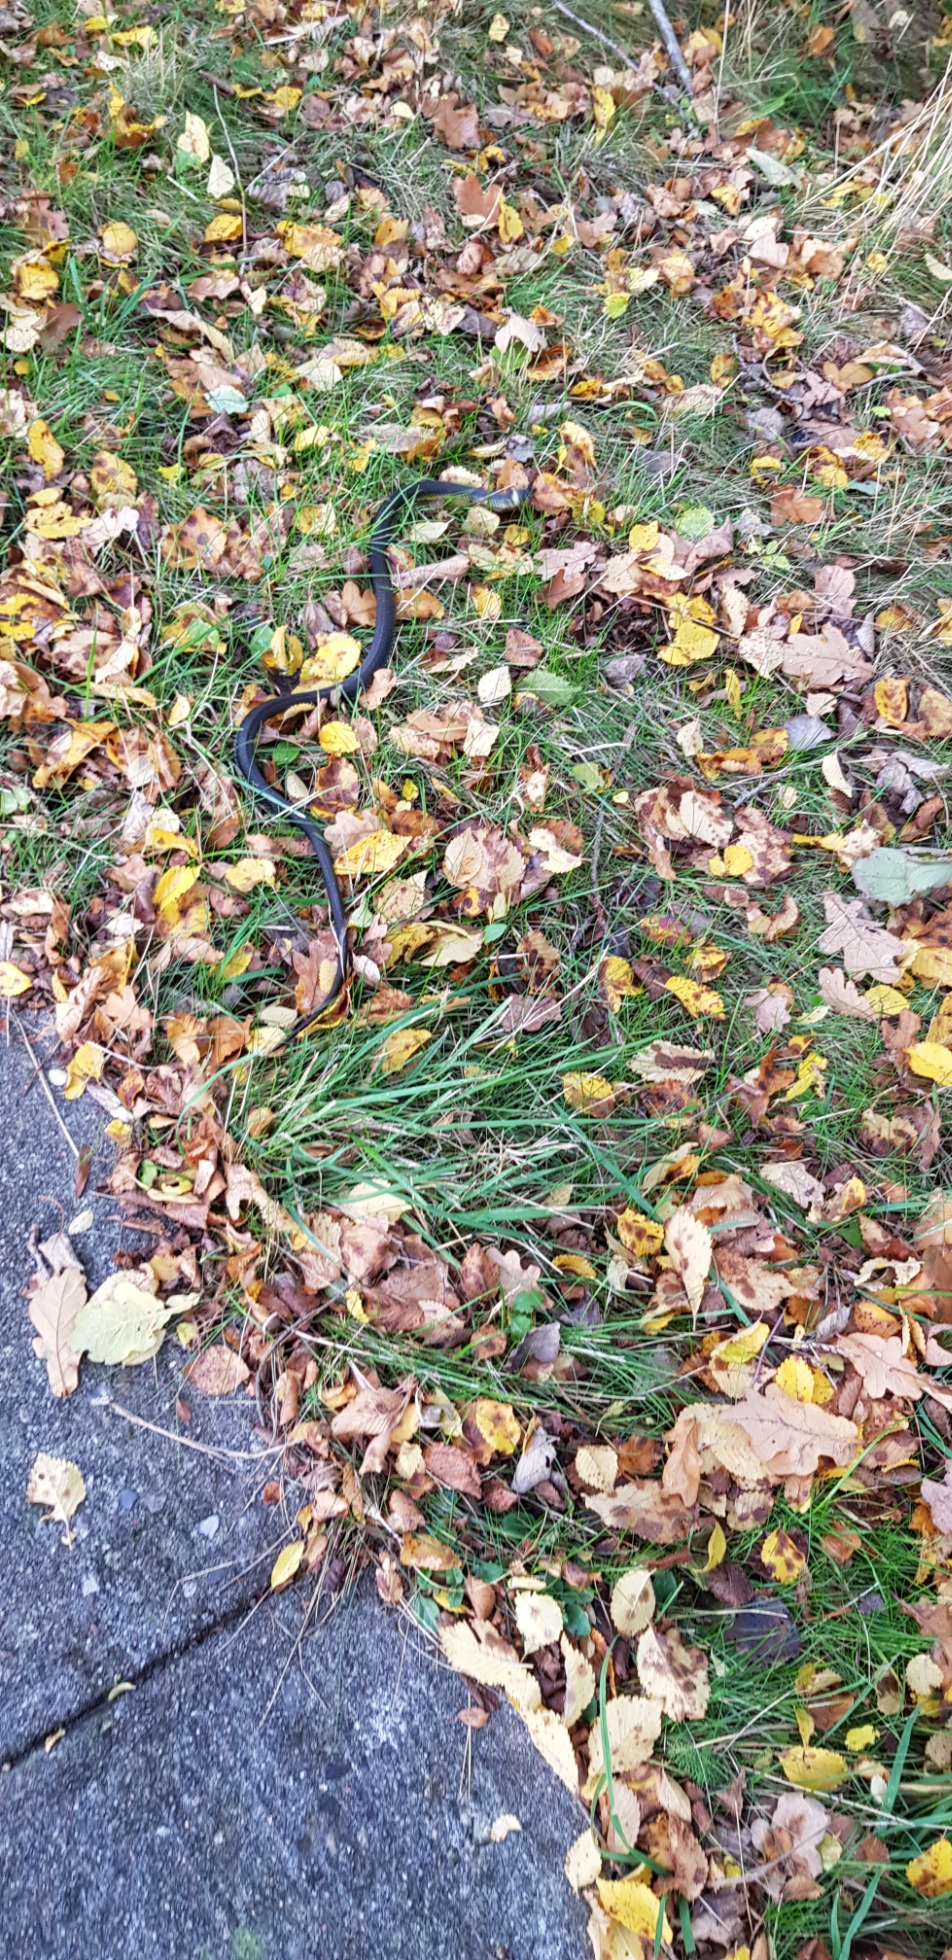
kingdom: Animalia
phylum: Chordata
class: Squamata
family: Colubridae
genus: Natrix
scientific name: Natrix natrix
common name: Snog
